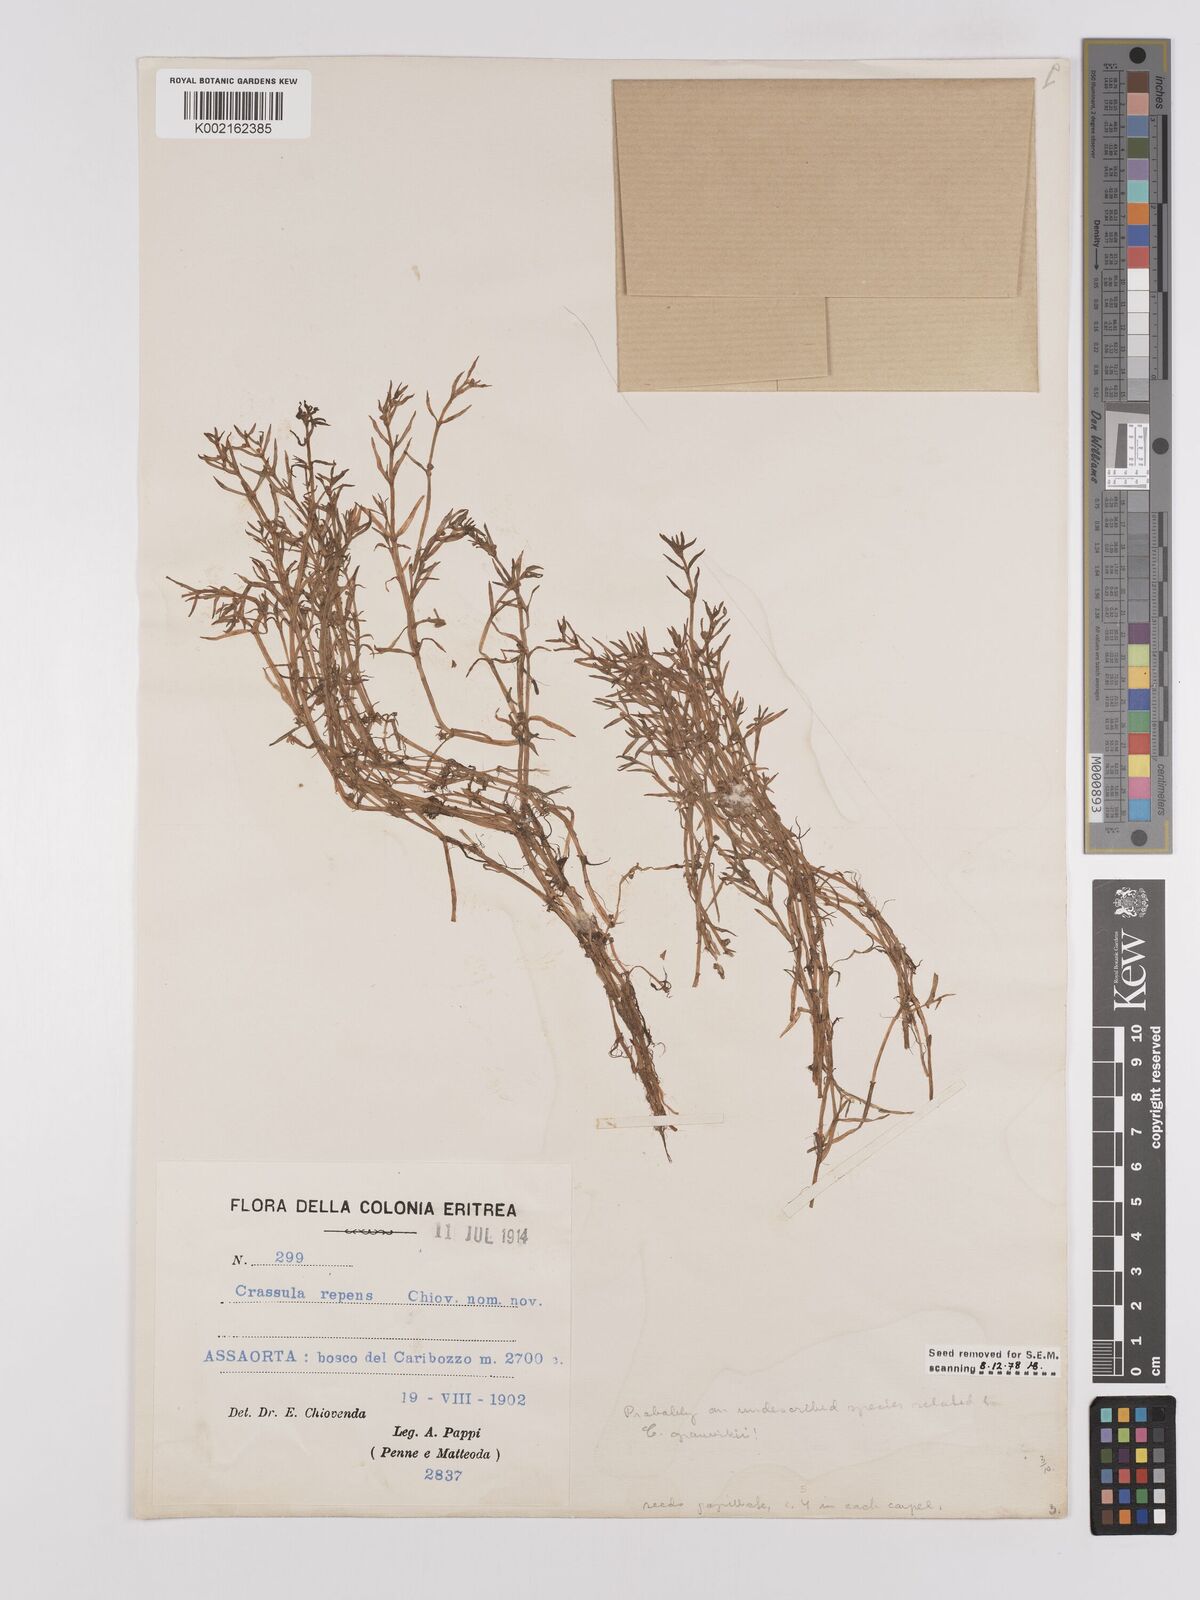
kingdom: Plantae
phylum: Tracheophyta
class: Magnoliopsida
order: Saxifragales
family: Crassulaceae
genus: Crassula
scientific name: Crassula granvikii
